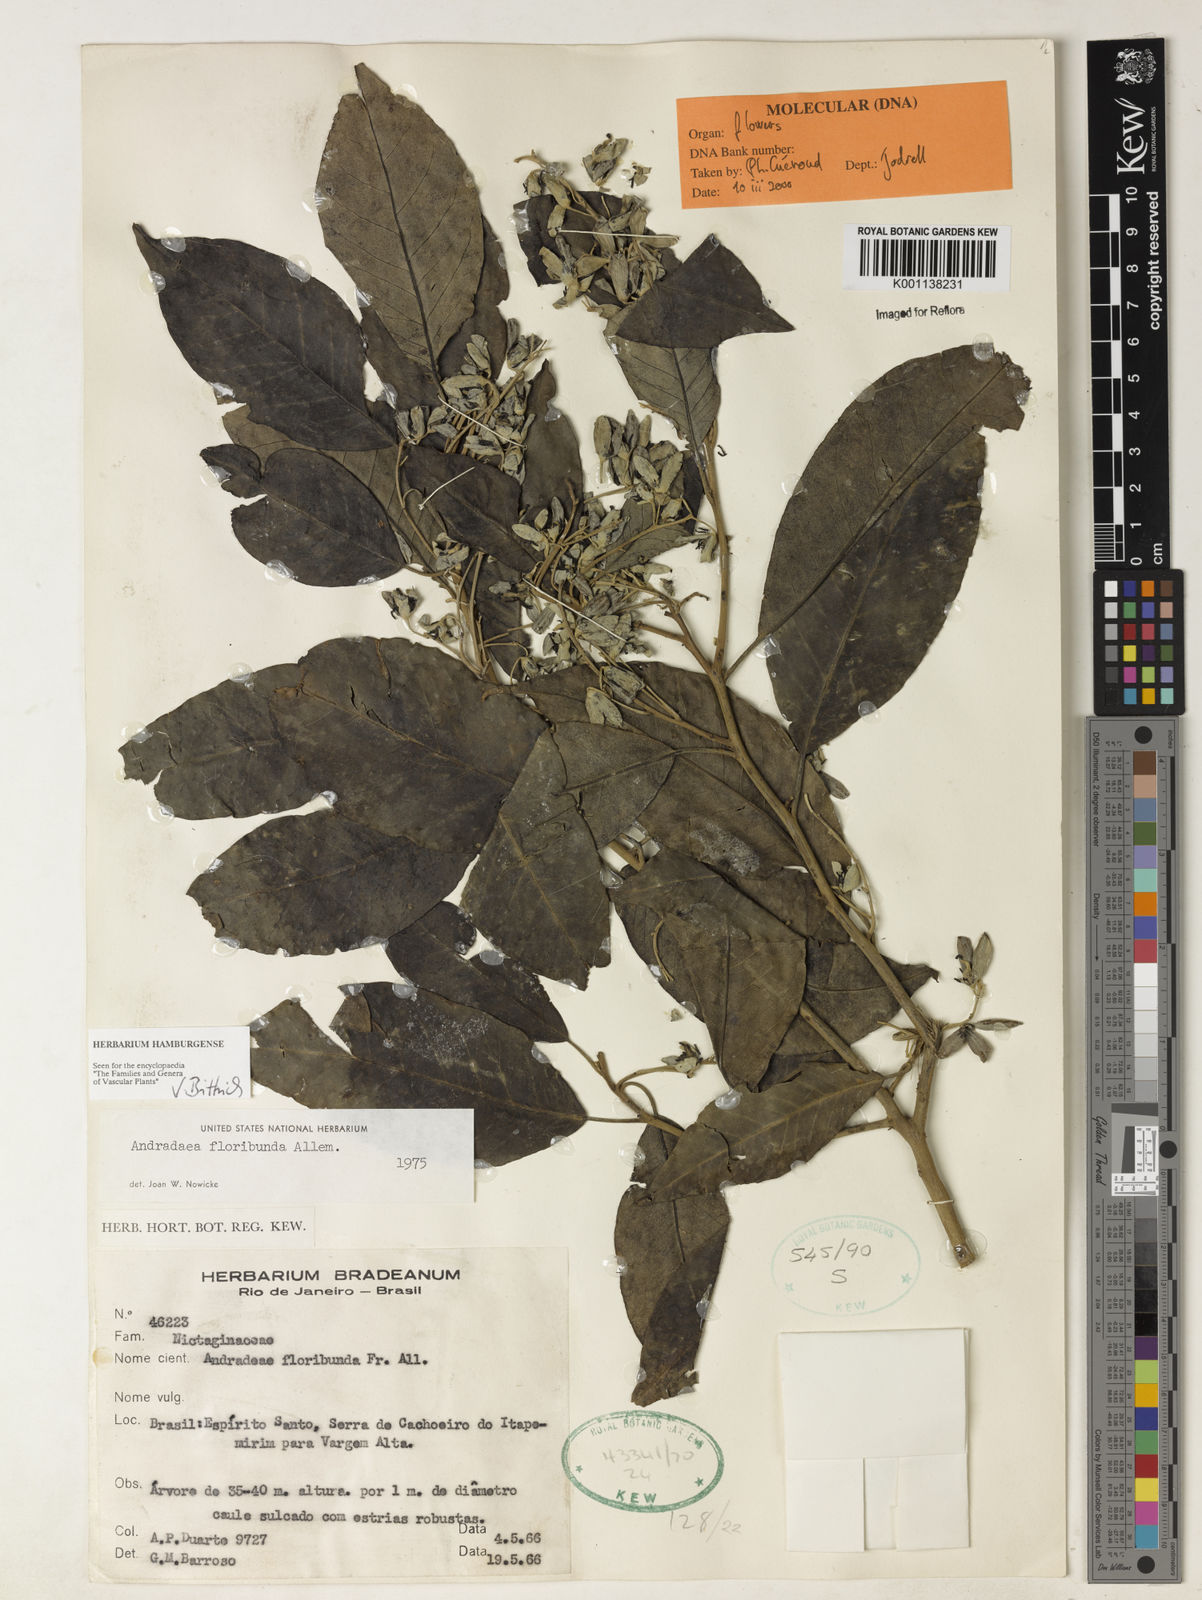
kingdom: Plantae
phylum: Tracheophyta
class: Magnoliopsida
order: Caryophyllales
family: Nyctaginaceae
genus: Andradea
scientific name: Andradea
